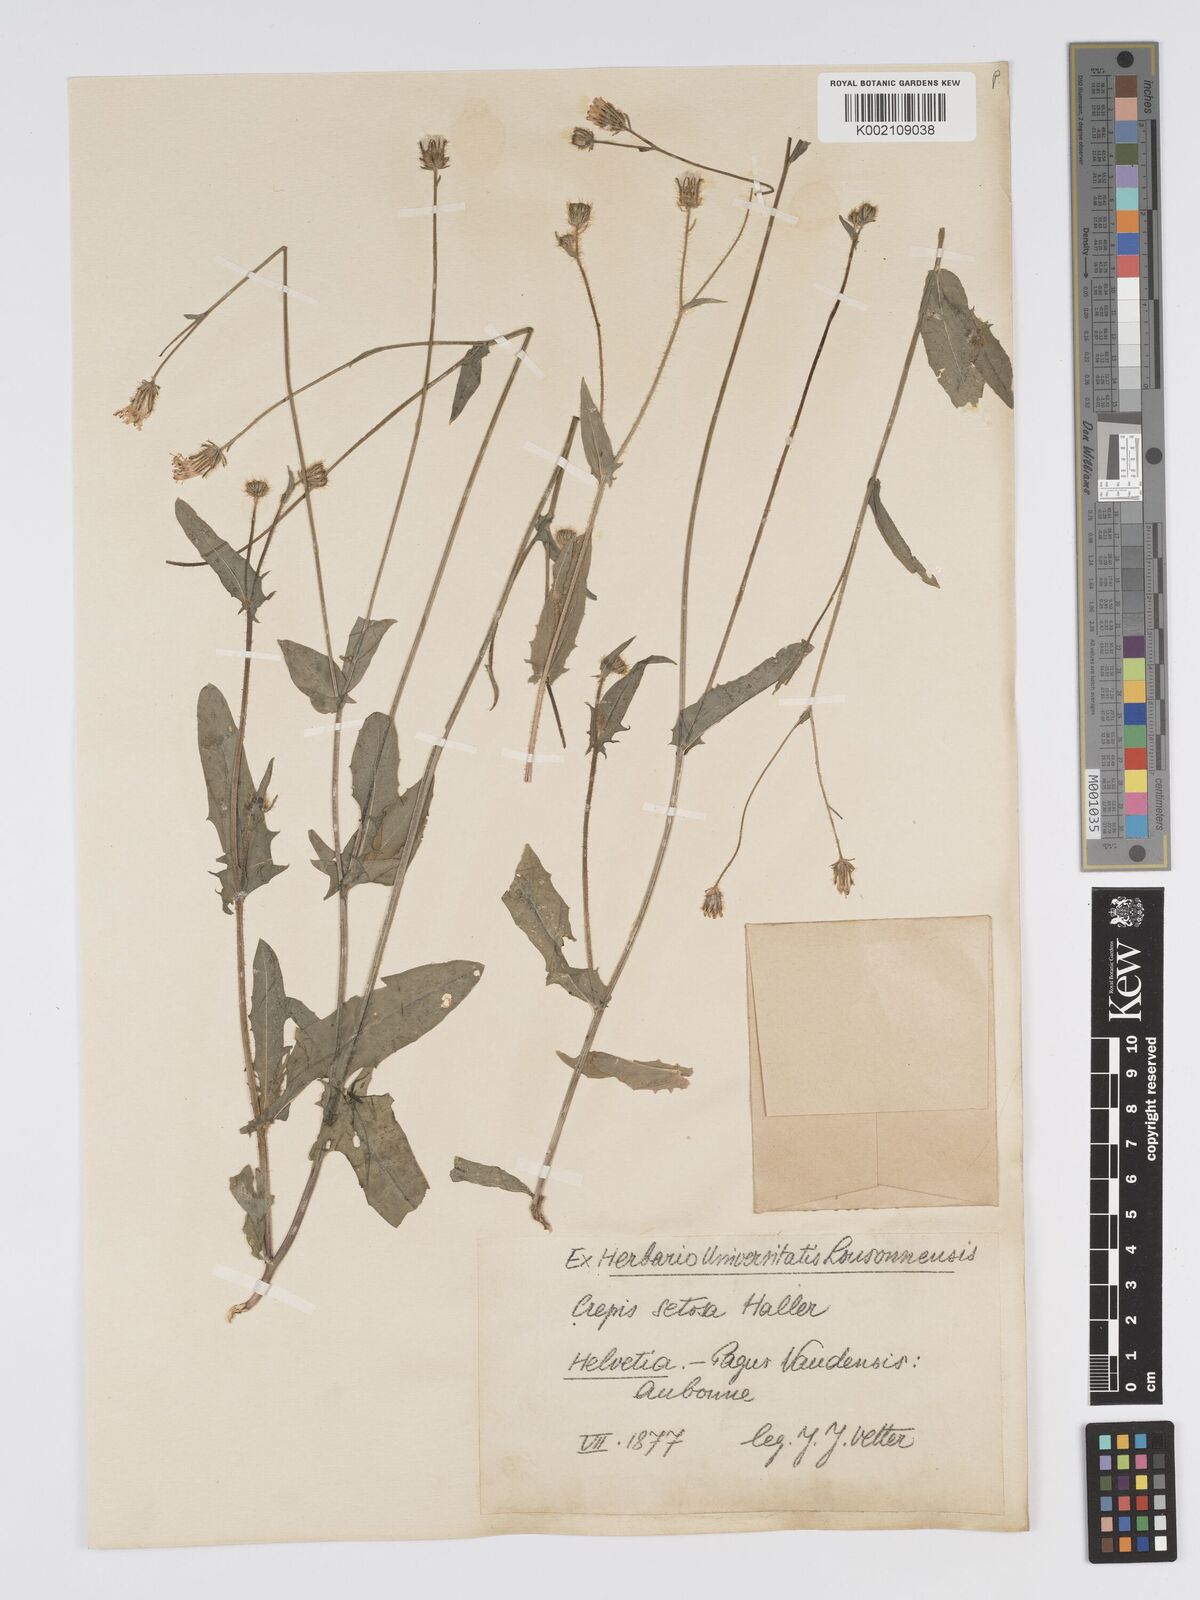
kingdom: Plantae
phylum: Tracheophyta
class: Magnoliopsida
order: Asterales
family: Asteraceae
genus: Crepis
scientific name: Crepis setosa
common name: Bristly hawk's-beard
